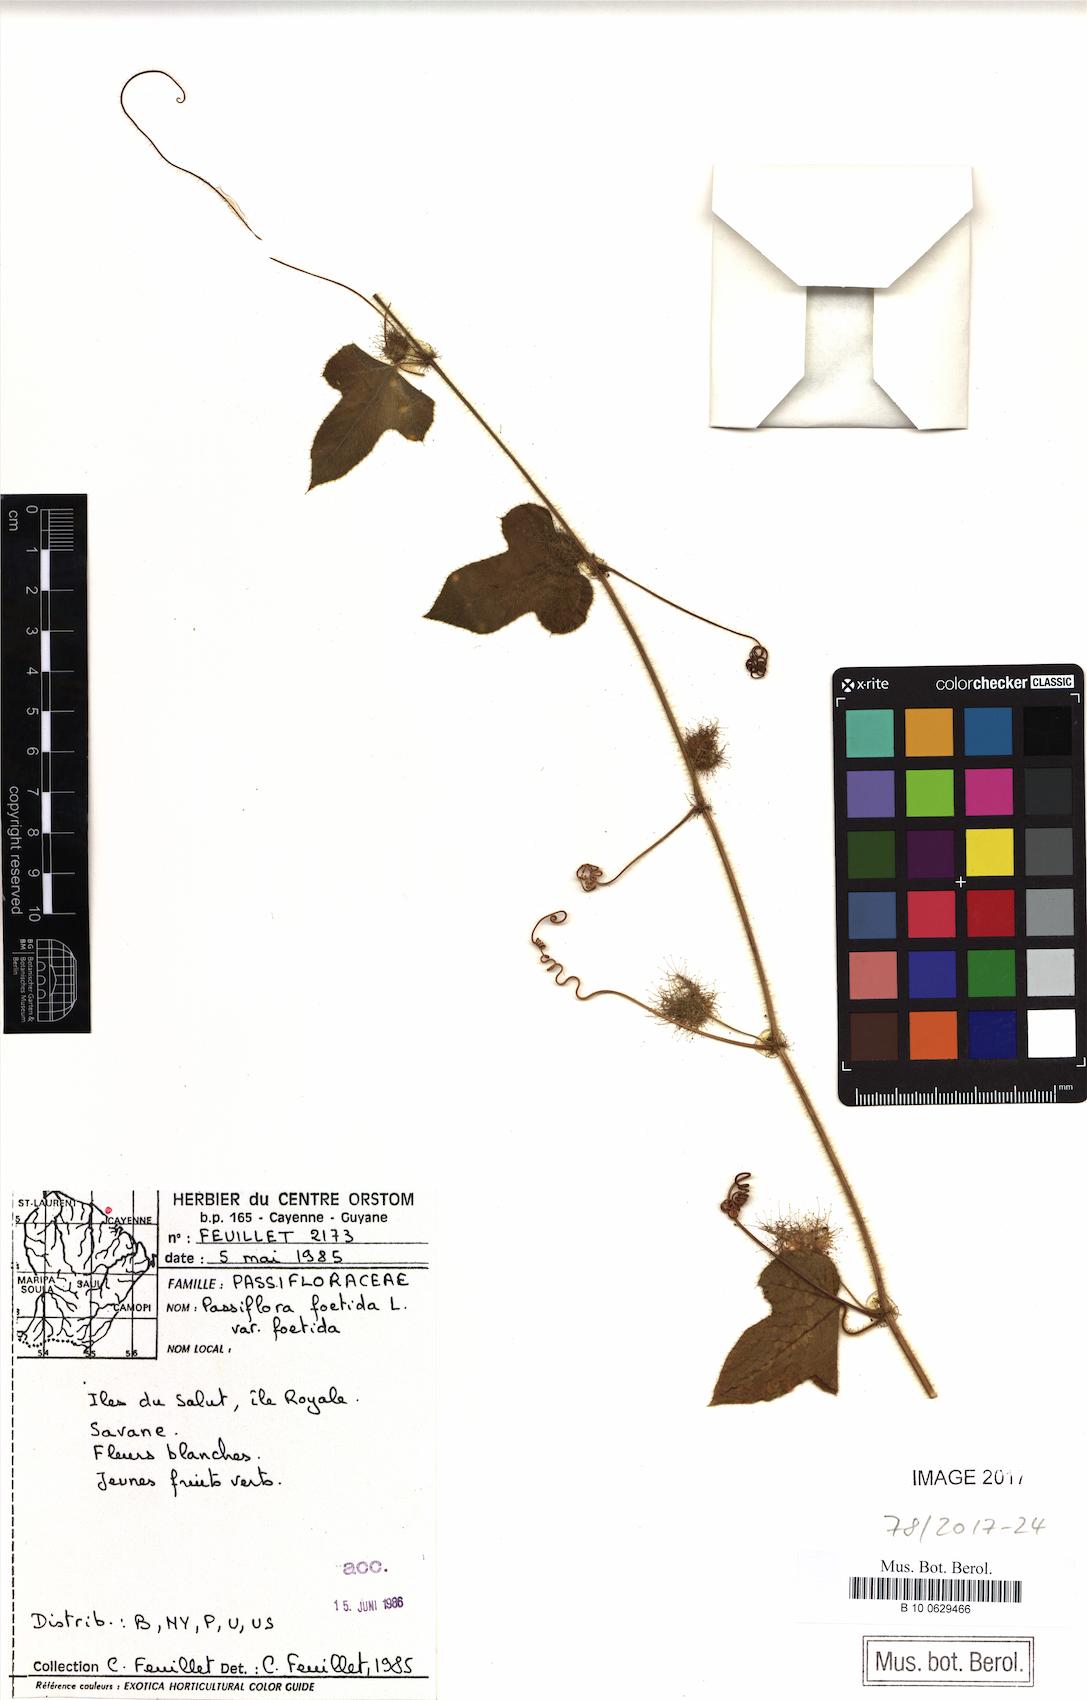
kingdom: Plantae
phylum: Tracheophyta
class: Magnoliopsida
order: Malpighiales
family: Passifloraceae
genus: Passiflora
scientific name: Passiflora foetida
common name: Fetid passionflower
